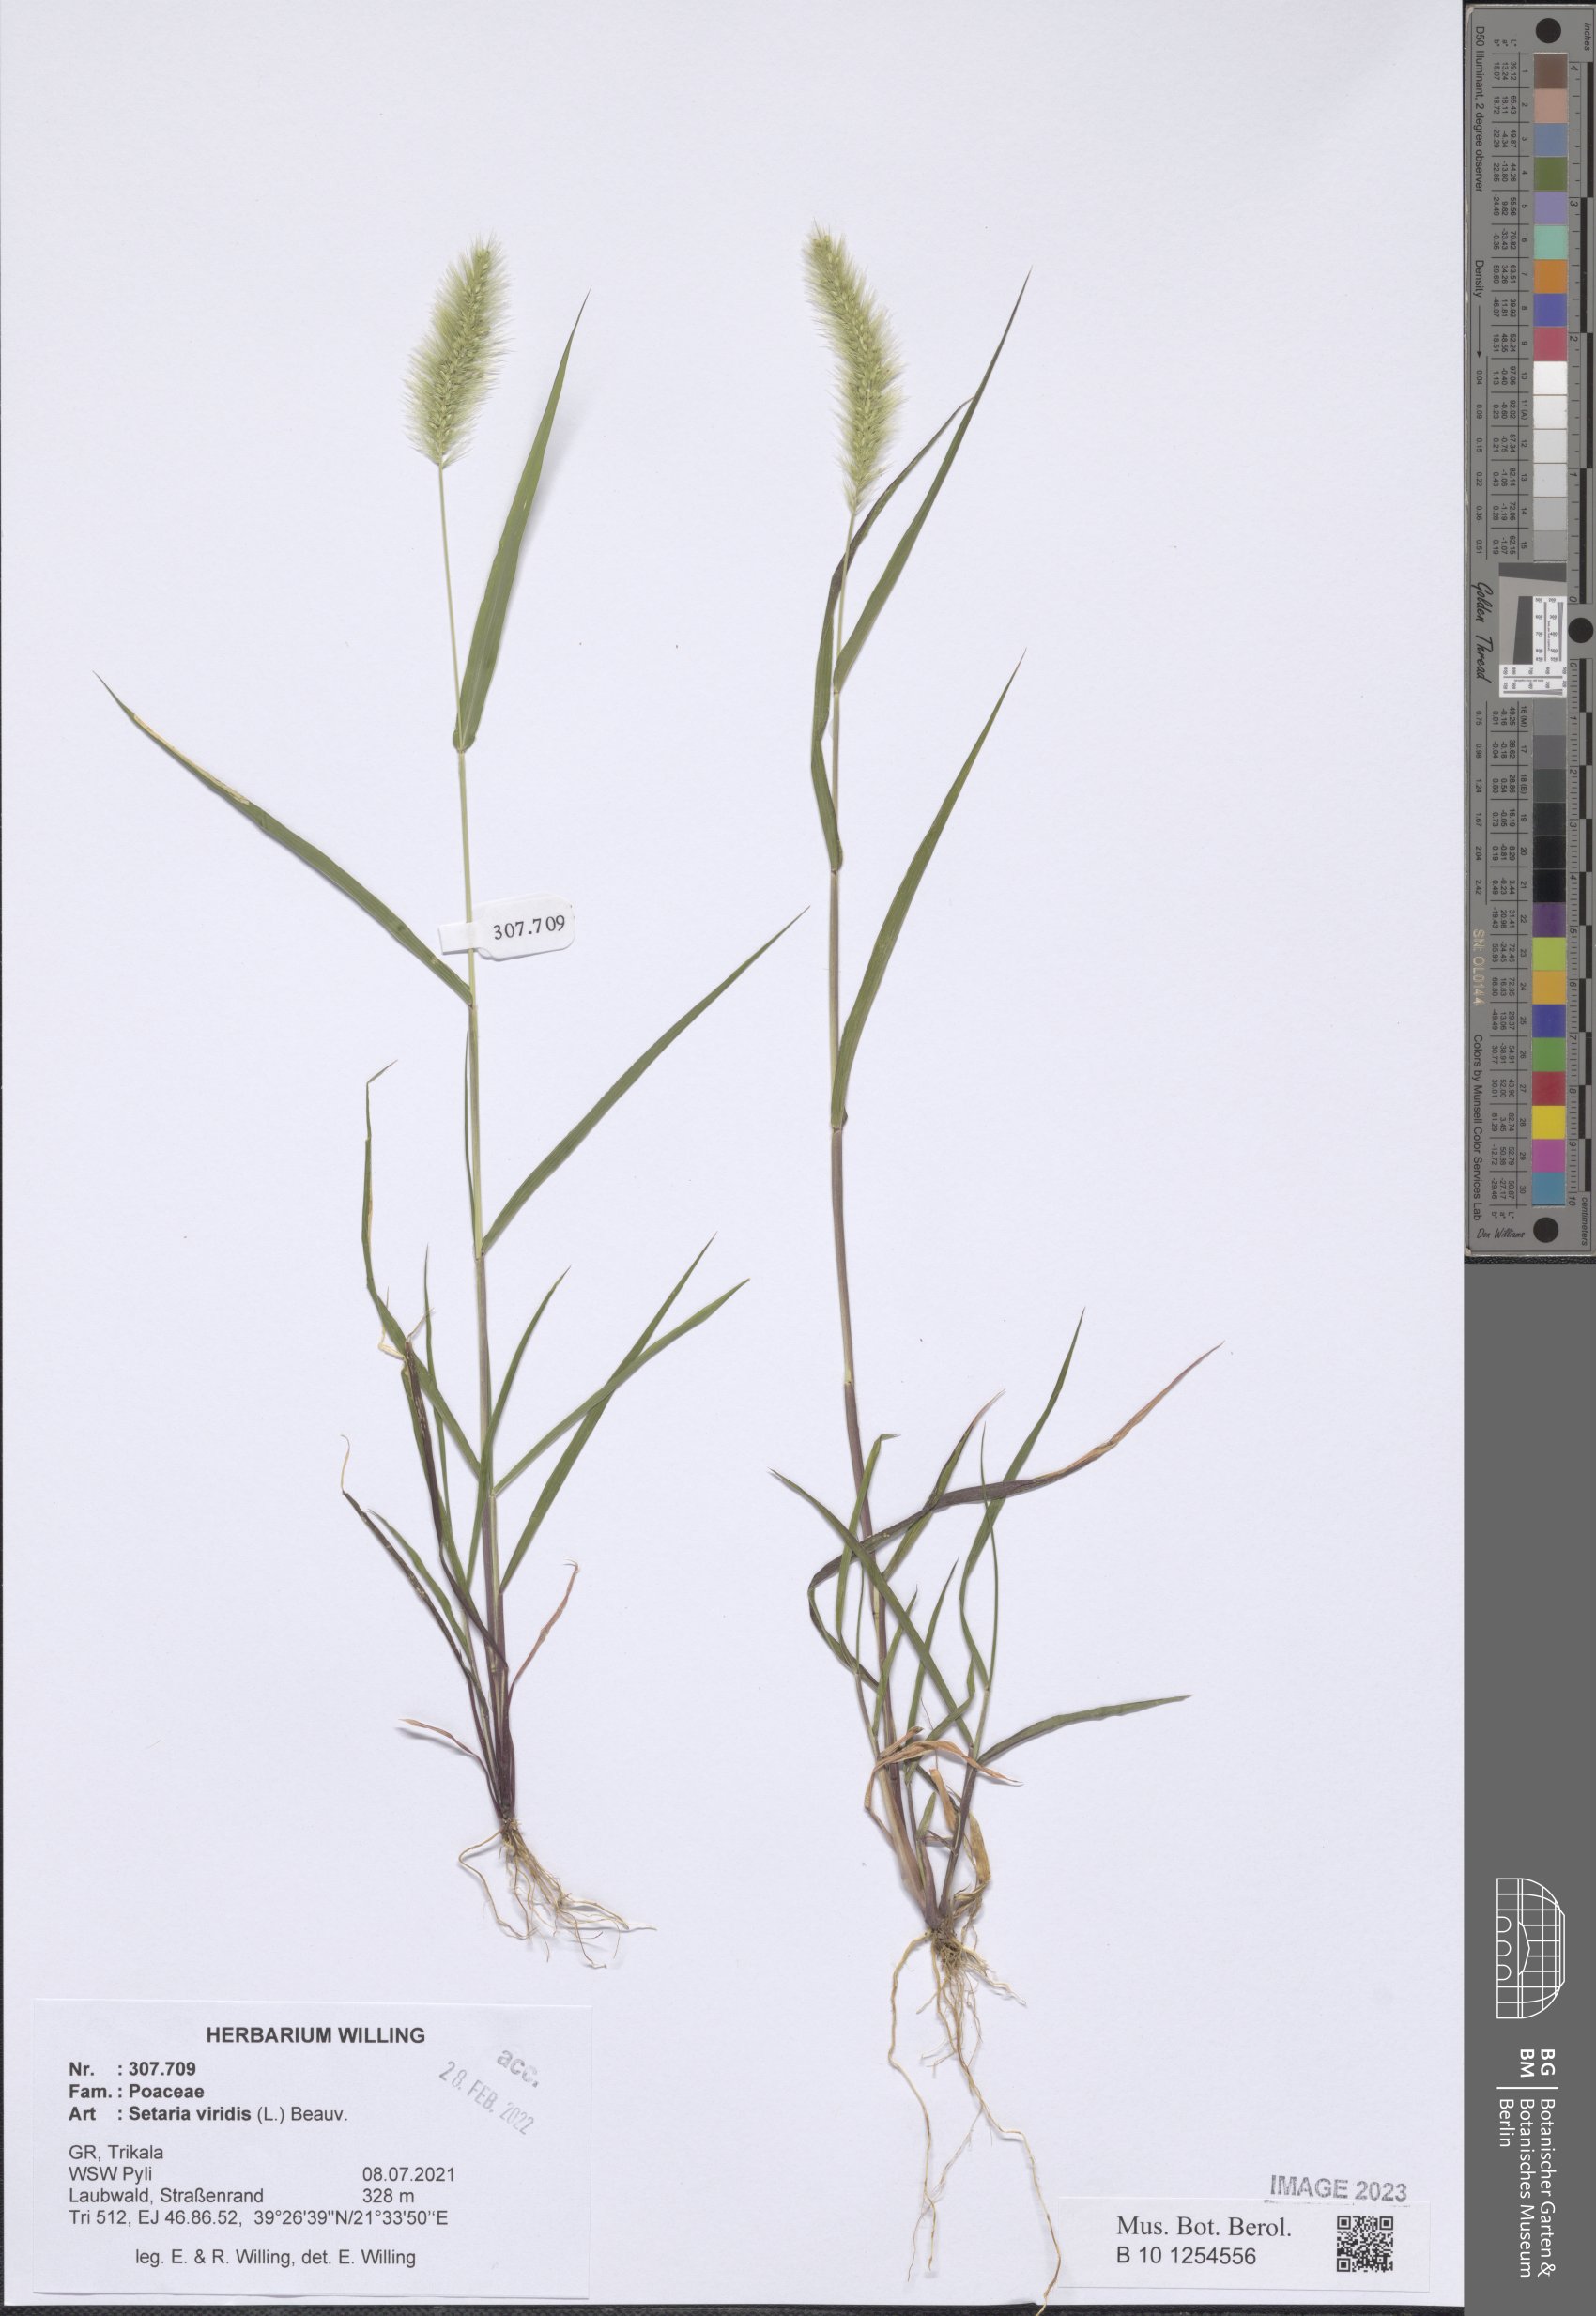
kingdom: Plantae
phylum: Tracheophyta
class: Liliopsida
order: Poales
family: Poaceae
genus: Setaria
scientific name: Setaria viridis
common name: Green bristlegrass
